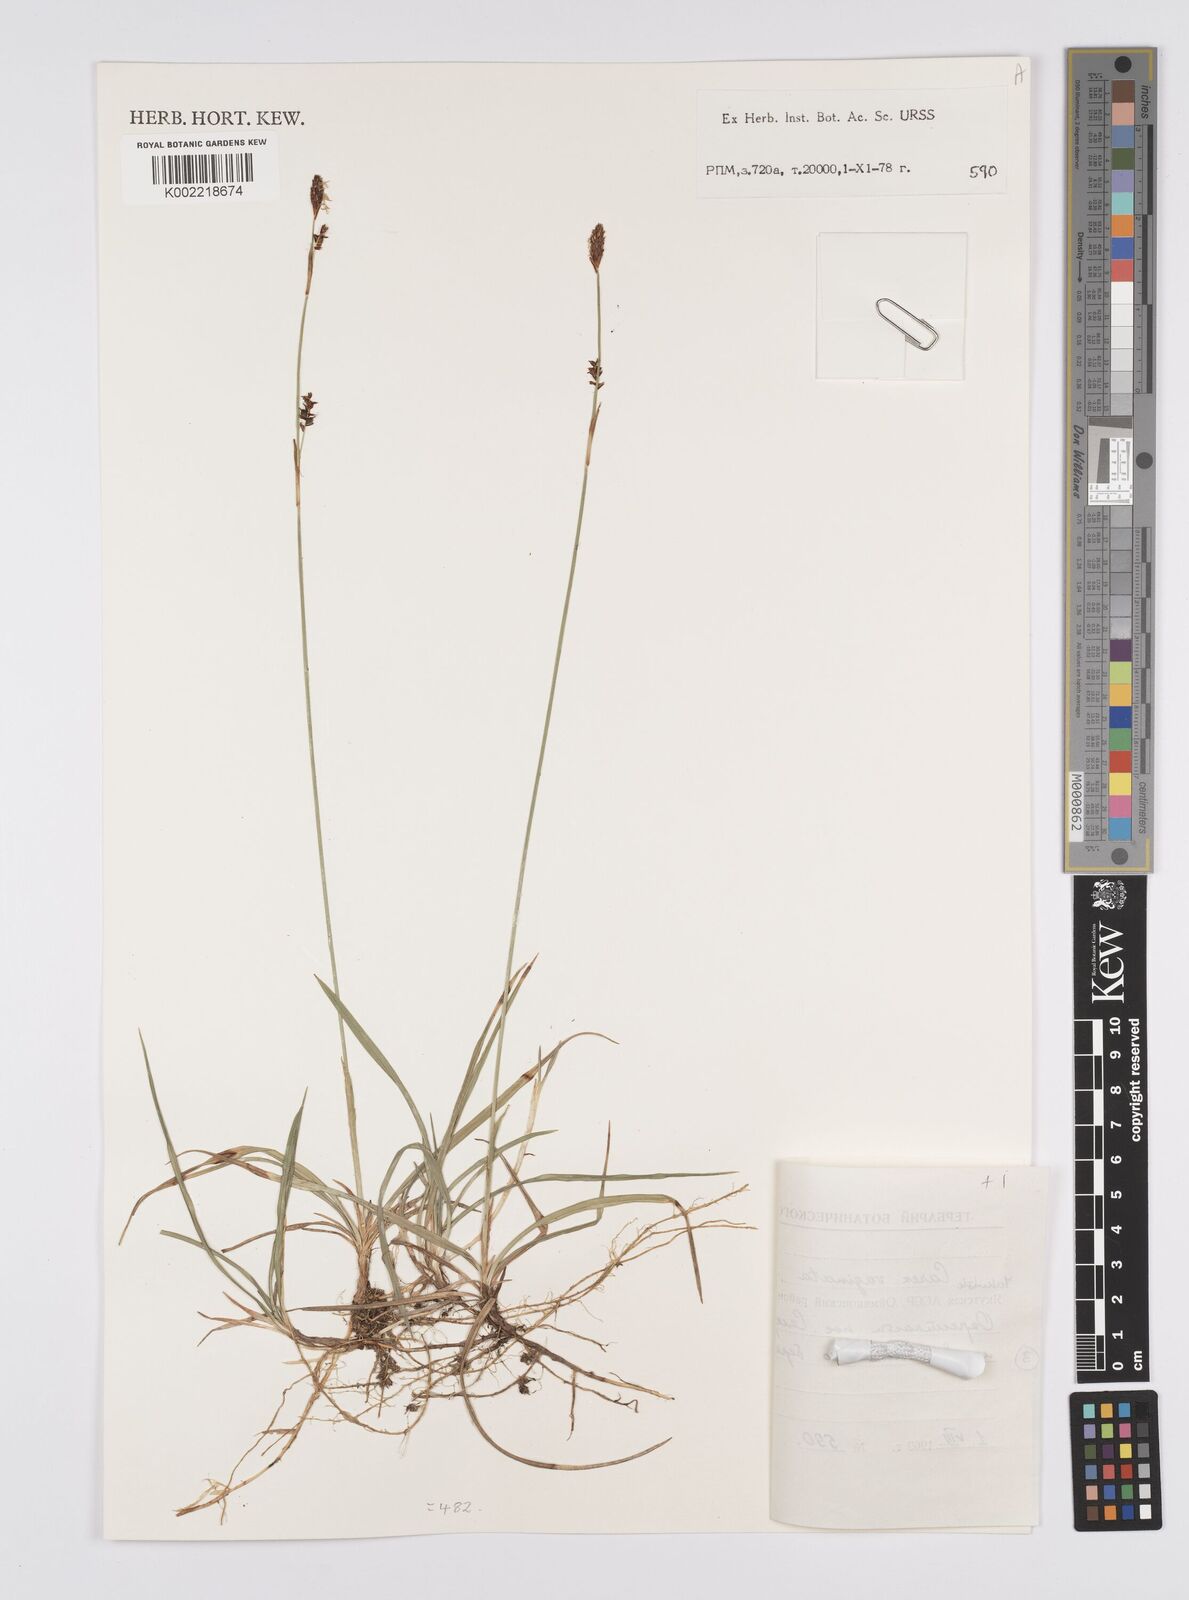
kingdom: Plantae
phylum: Tracheophyta
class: Liliopsida
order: Poales
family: Cyperaceae
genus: Carex
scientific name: Carex vaginata
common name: Sheathed sedge
